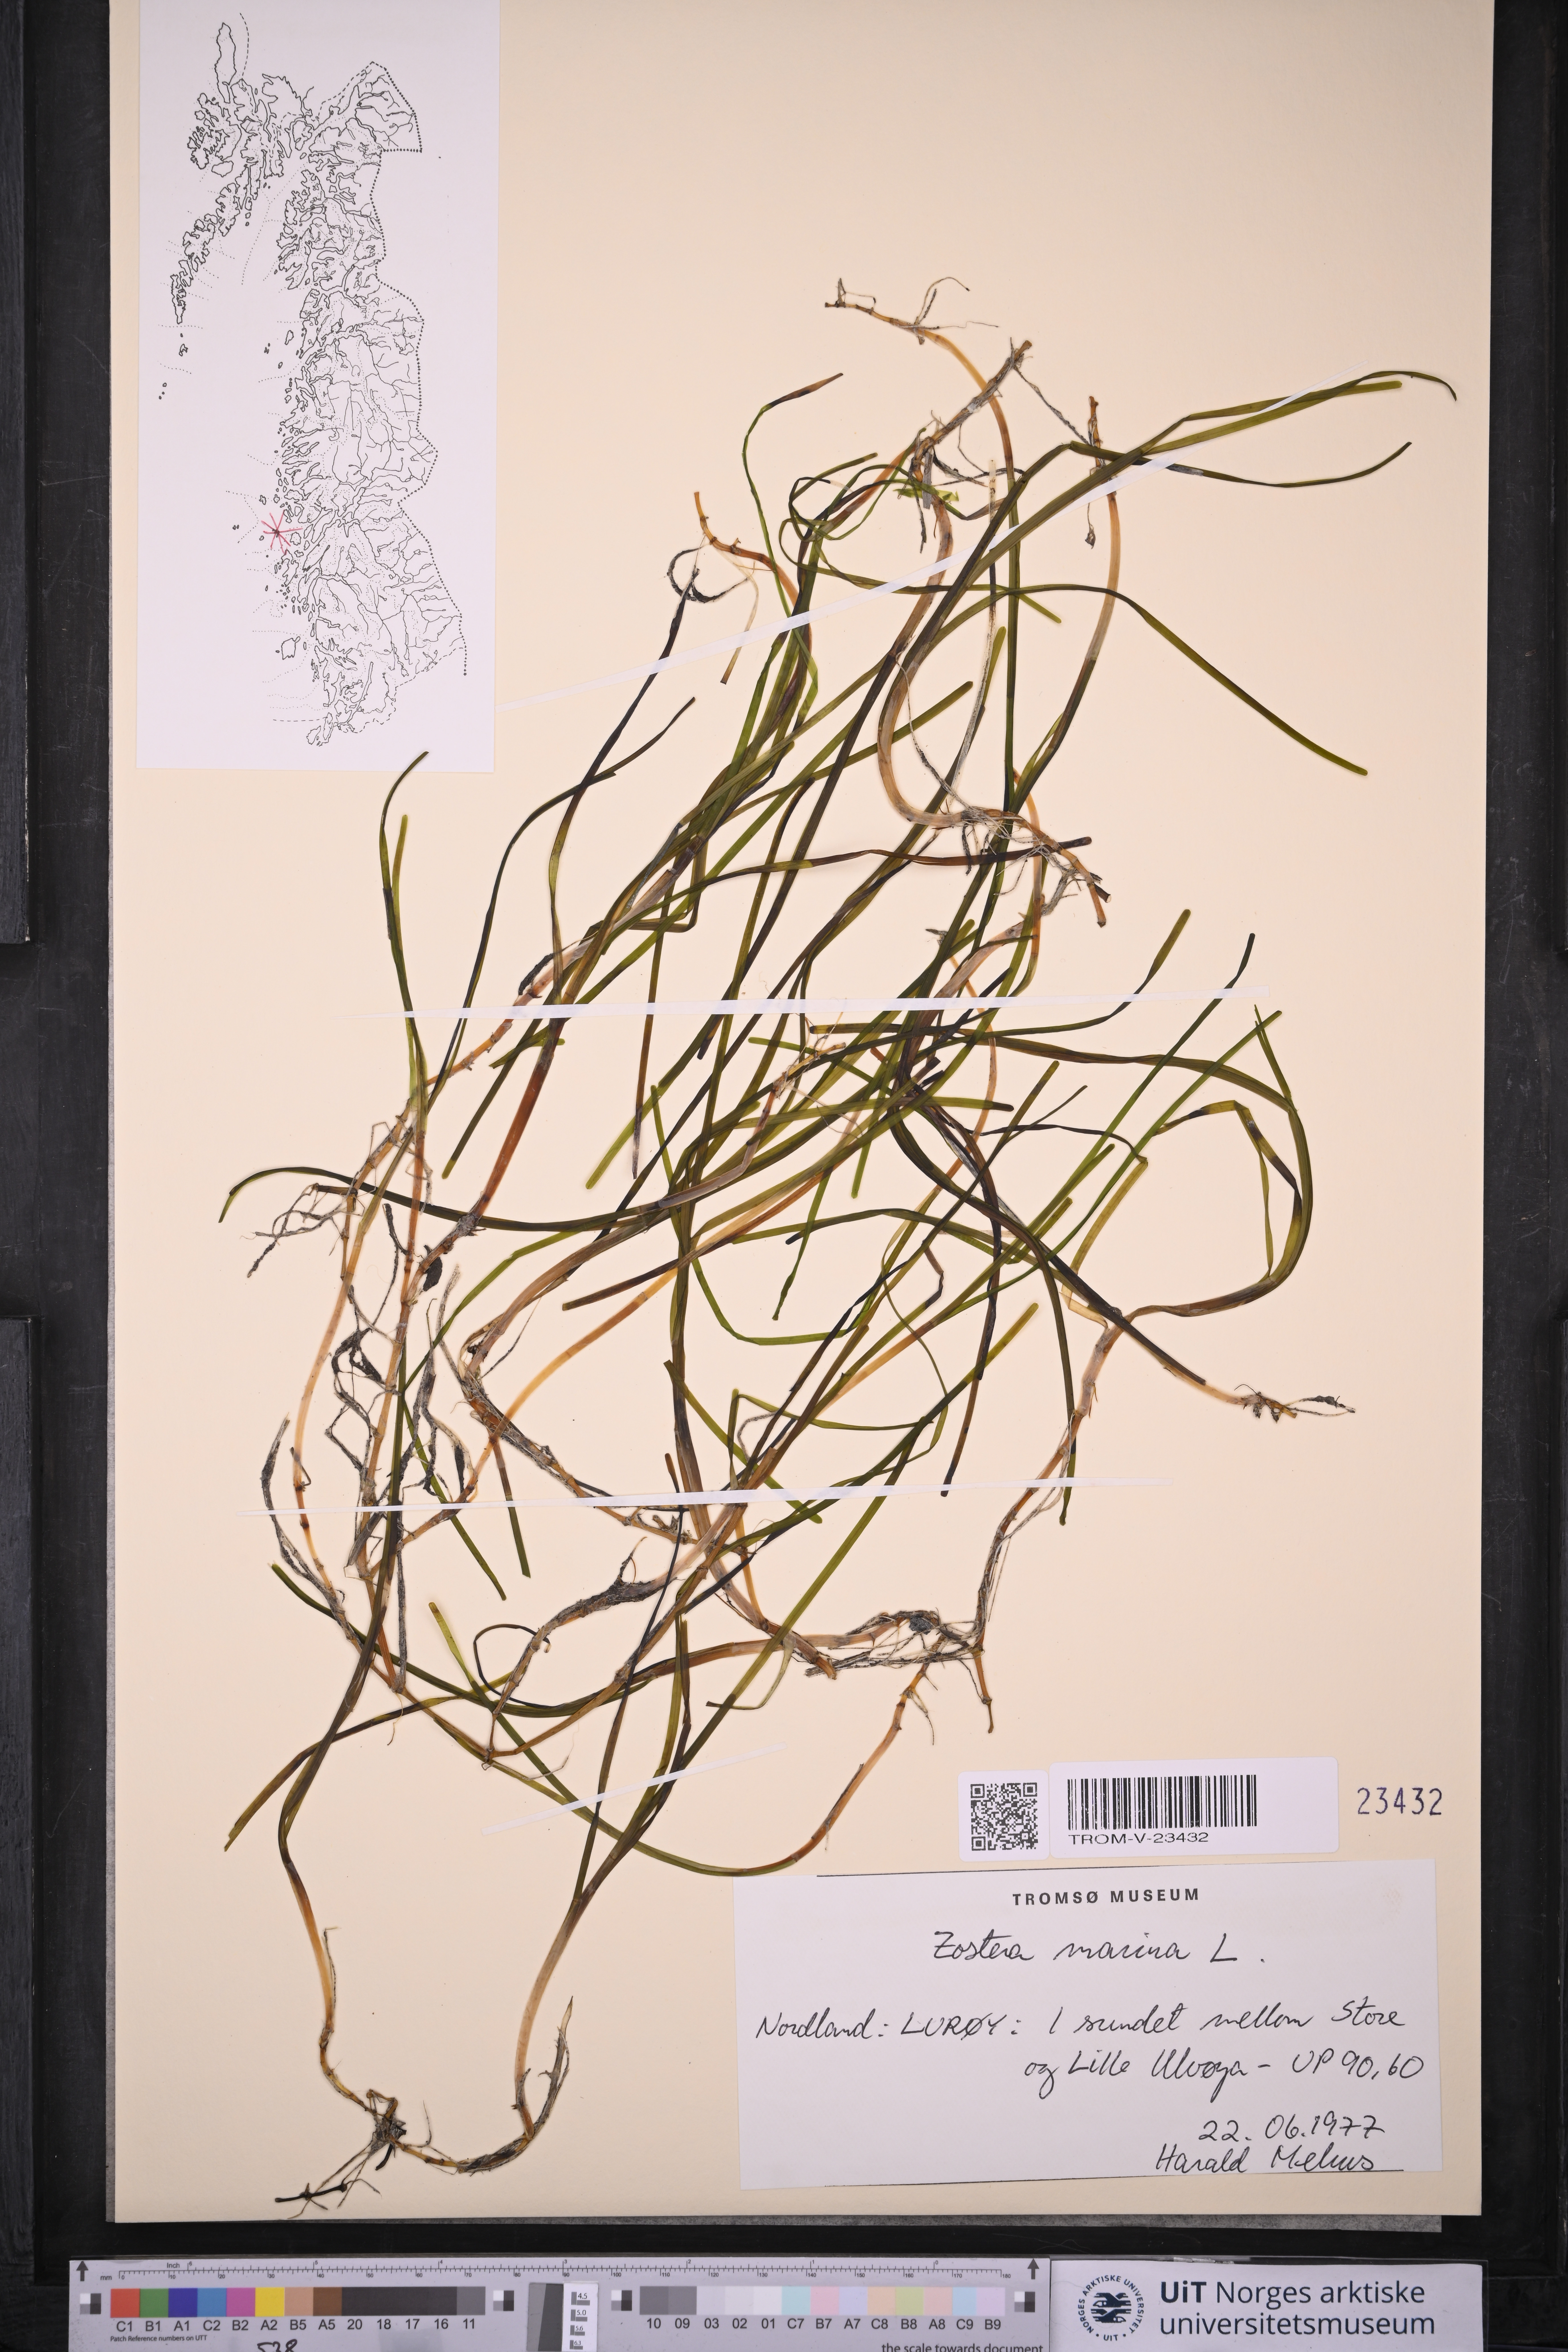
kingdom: Plantae
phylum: Tracheophyta
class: Liliopsida
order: Alismatales
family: Zosteraceae
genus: Zostera
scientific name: Zostera marina
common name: Eelgrass
